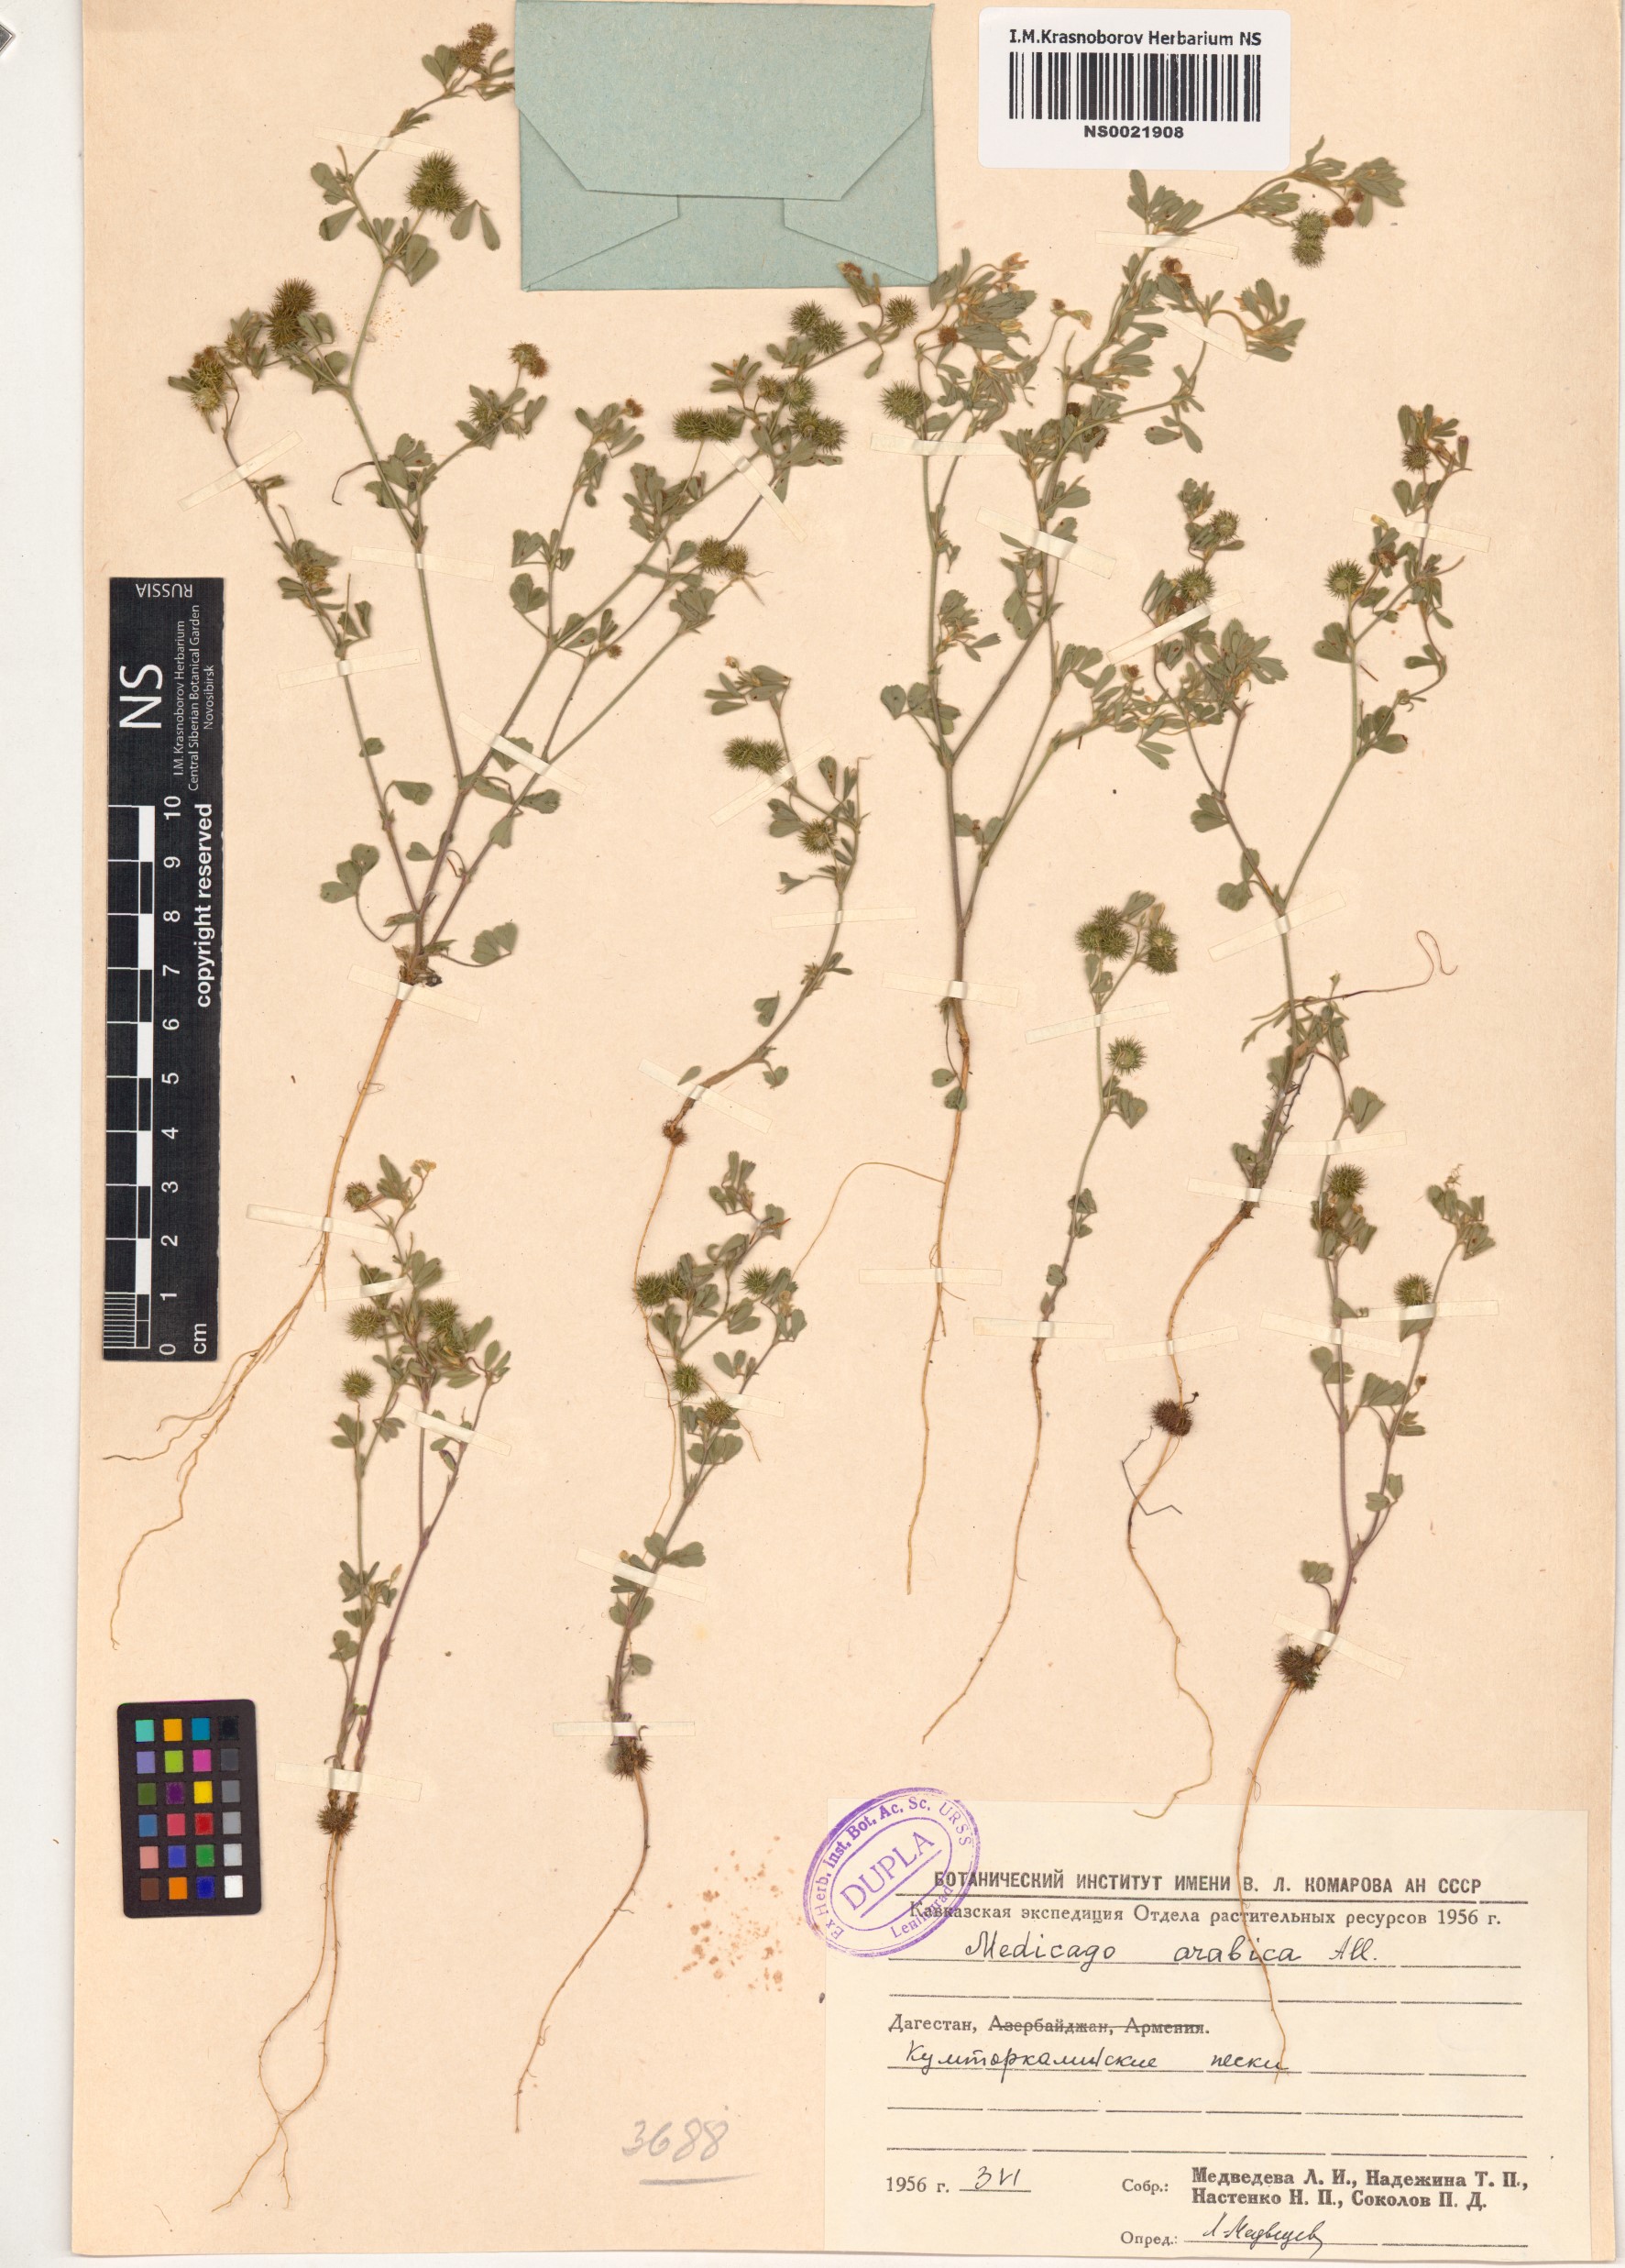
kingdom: Plantae
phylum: Tracheophyta
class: Magnoliopsida
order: Fabales
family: Fabaceae
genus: Medicago
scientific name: Medicago arabica
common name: Spotted medick
